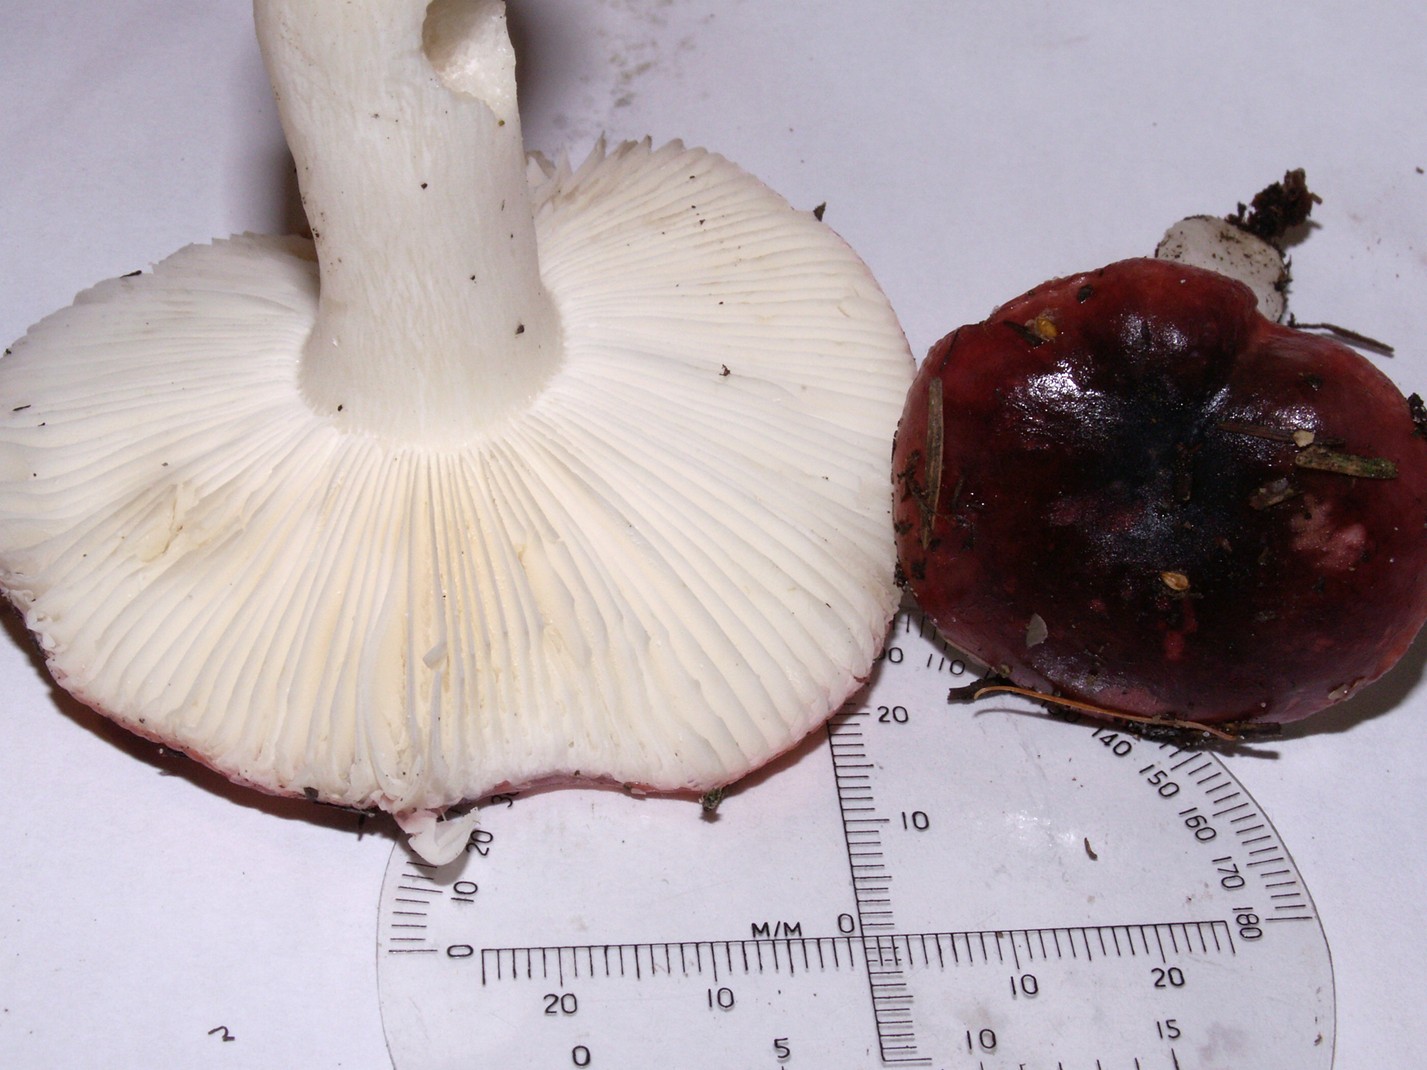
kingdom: Fungi
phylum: Basidiomycota
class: Agaricomycetes
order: Russulales
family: Russulaceae
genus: Russula
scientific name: Russula atrorubens
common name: sortrød skørhat
